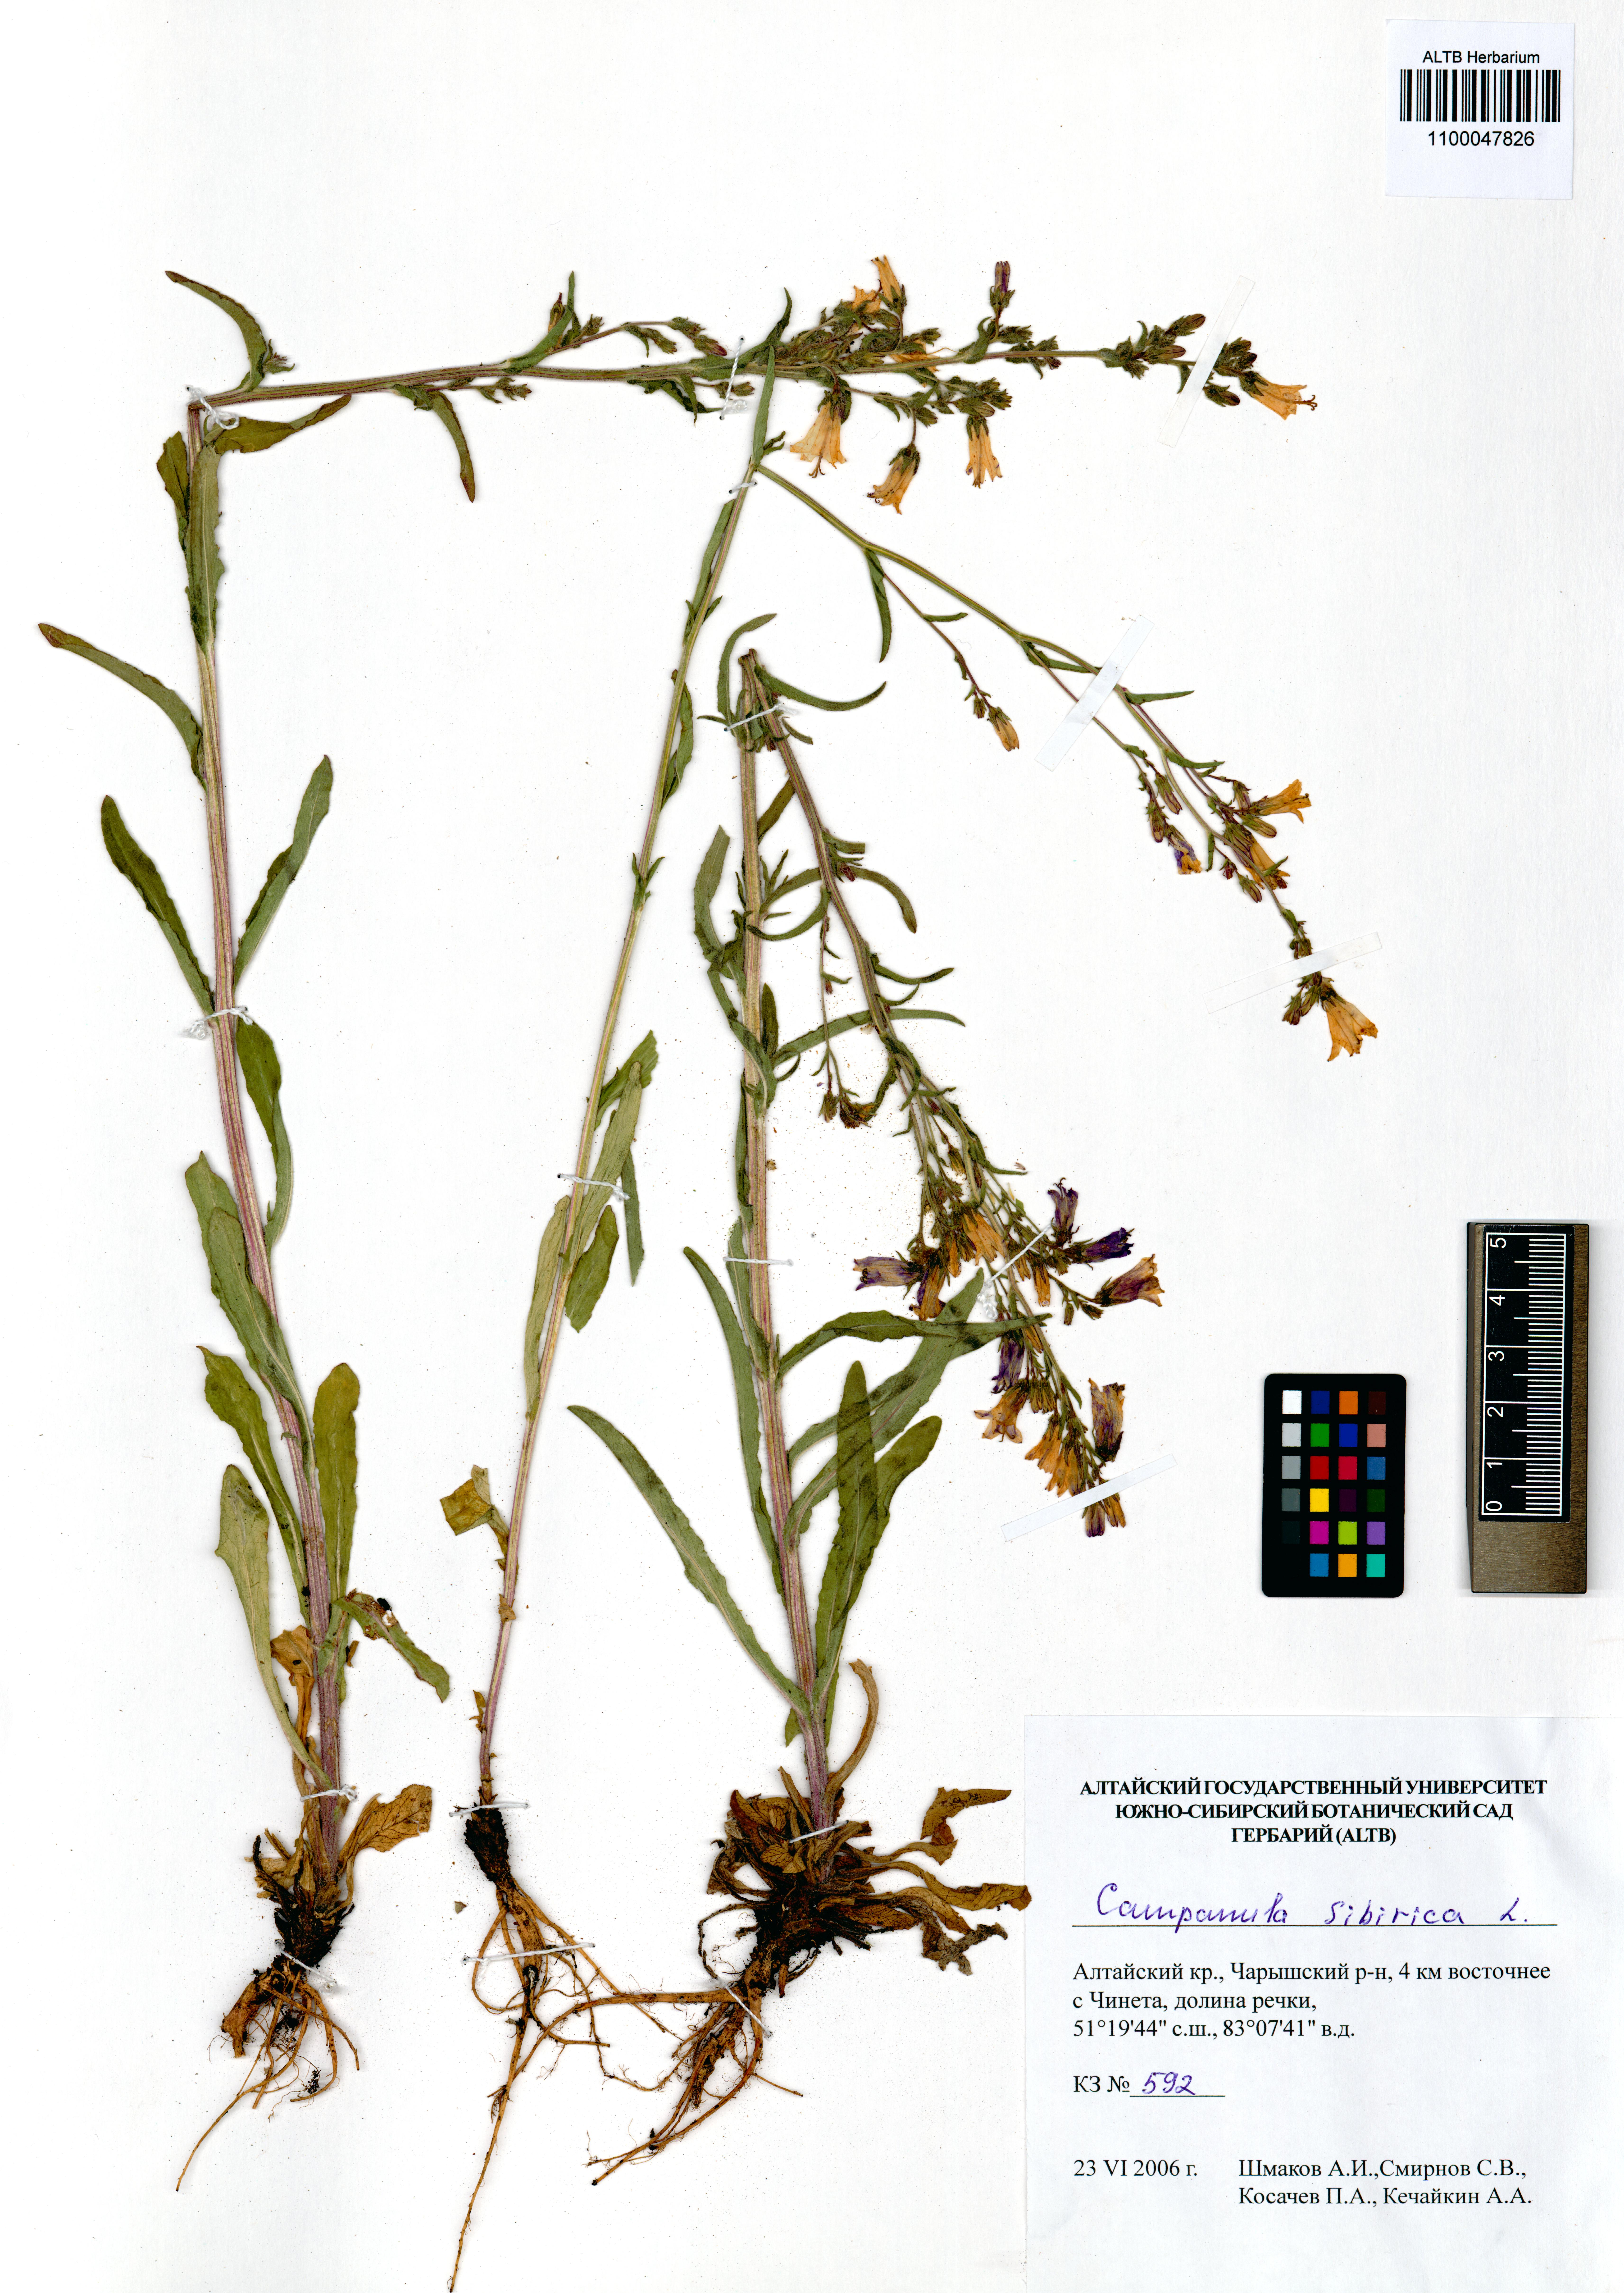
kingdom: Plantae
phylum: Tracheophyta
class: Magnoliopsida
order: Asterales
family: Campanulaceae
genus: Campanula
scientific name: Campanula sibirica
